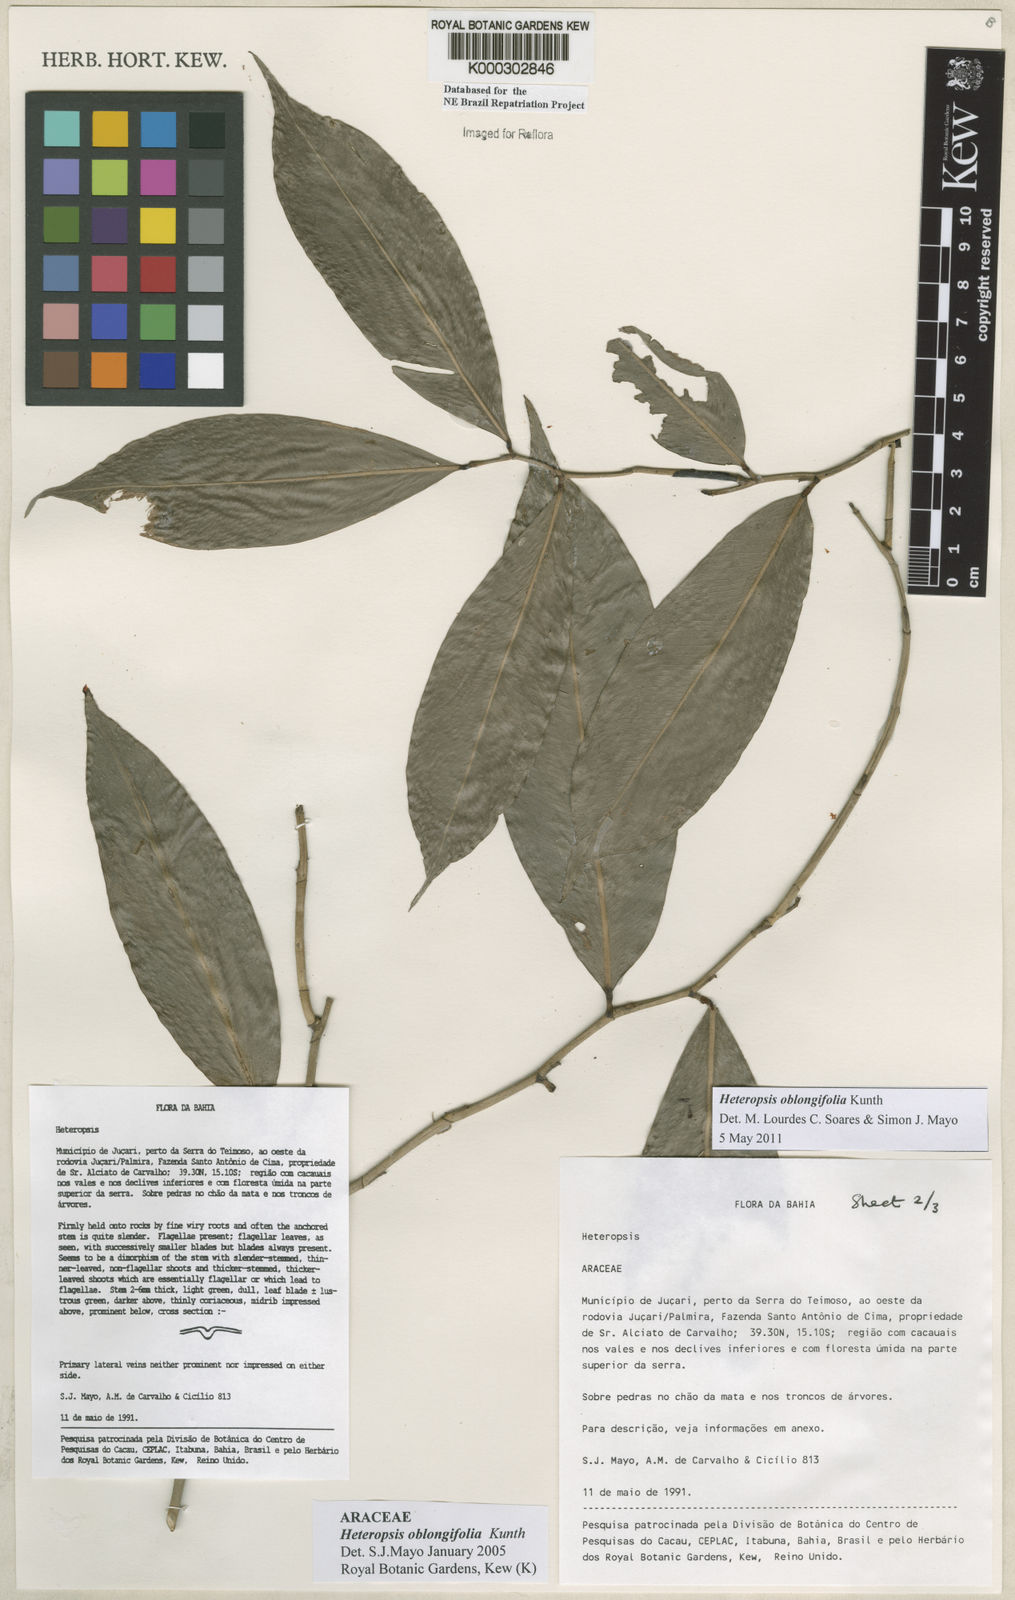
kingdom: Plantae
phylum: Tracheophyta
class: Liliopsida
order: Alismatales
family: Araceae
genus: Heteropsis
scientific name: Heteropsis oblongifolia
